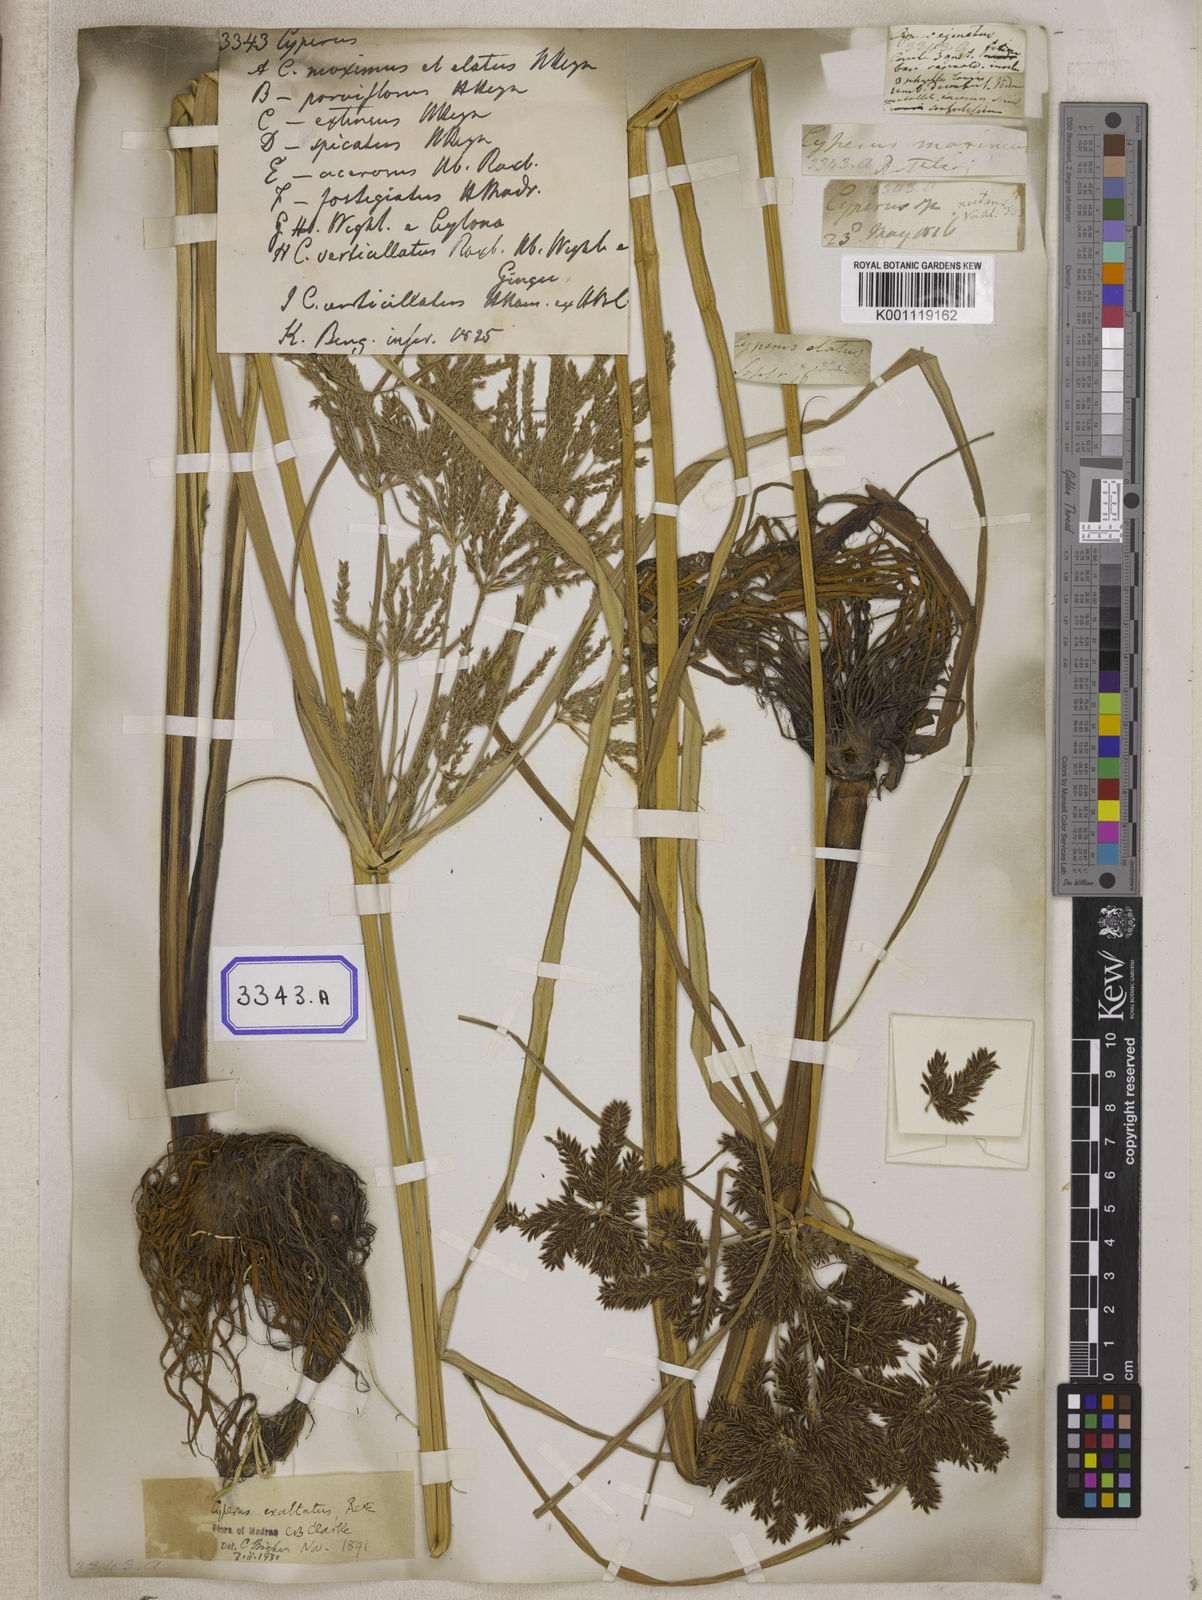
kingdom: Plantae
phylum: Tracheophyta
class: Liliopsida
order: Poales
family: Cyperaceae
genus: Cyperus
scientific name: Cyperus
